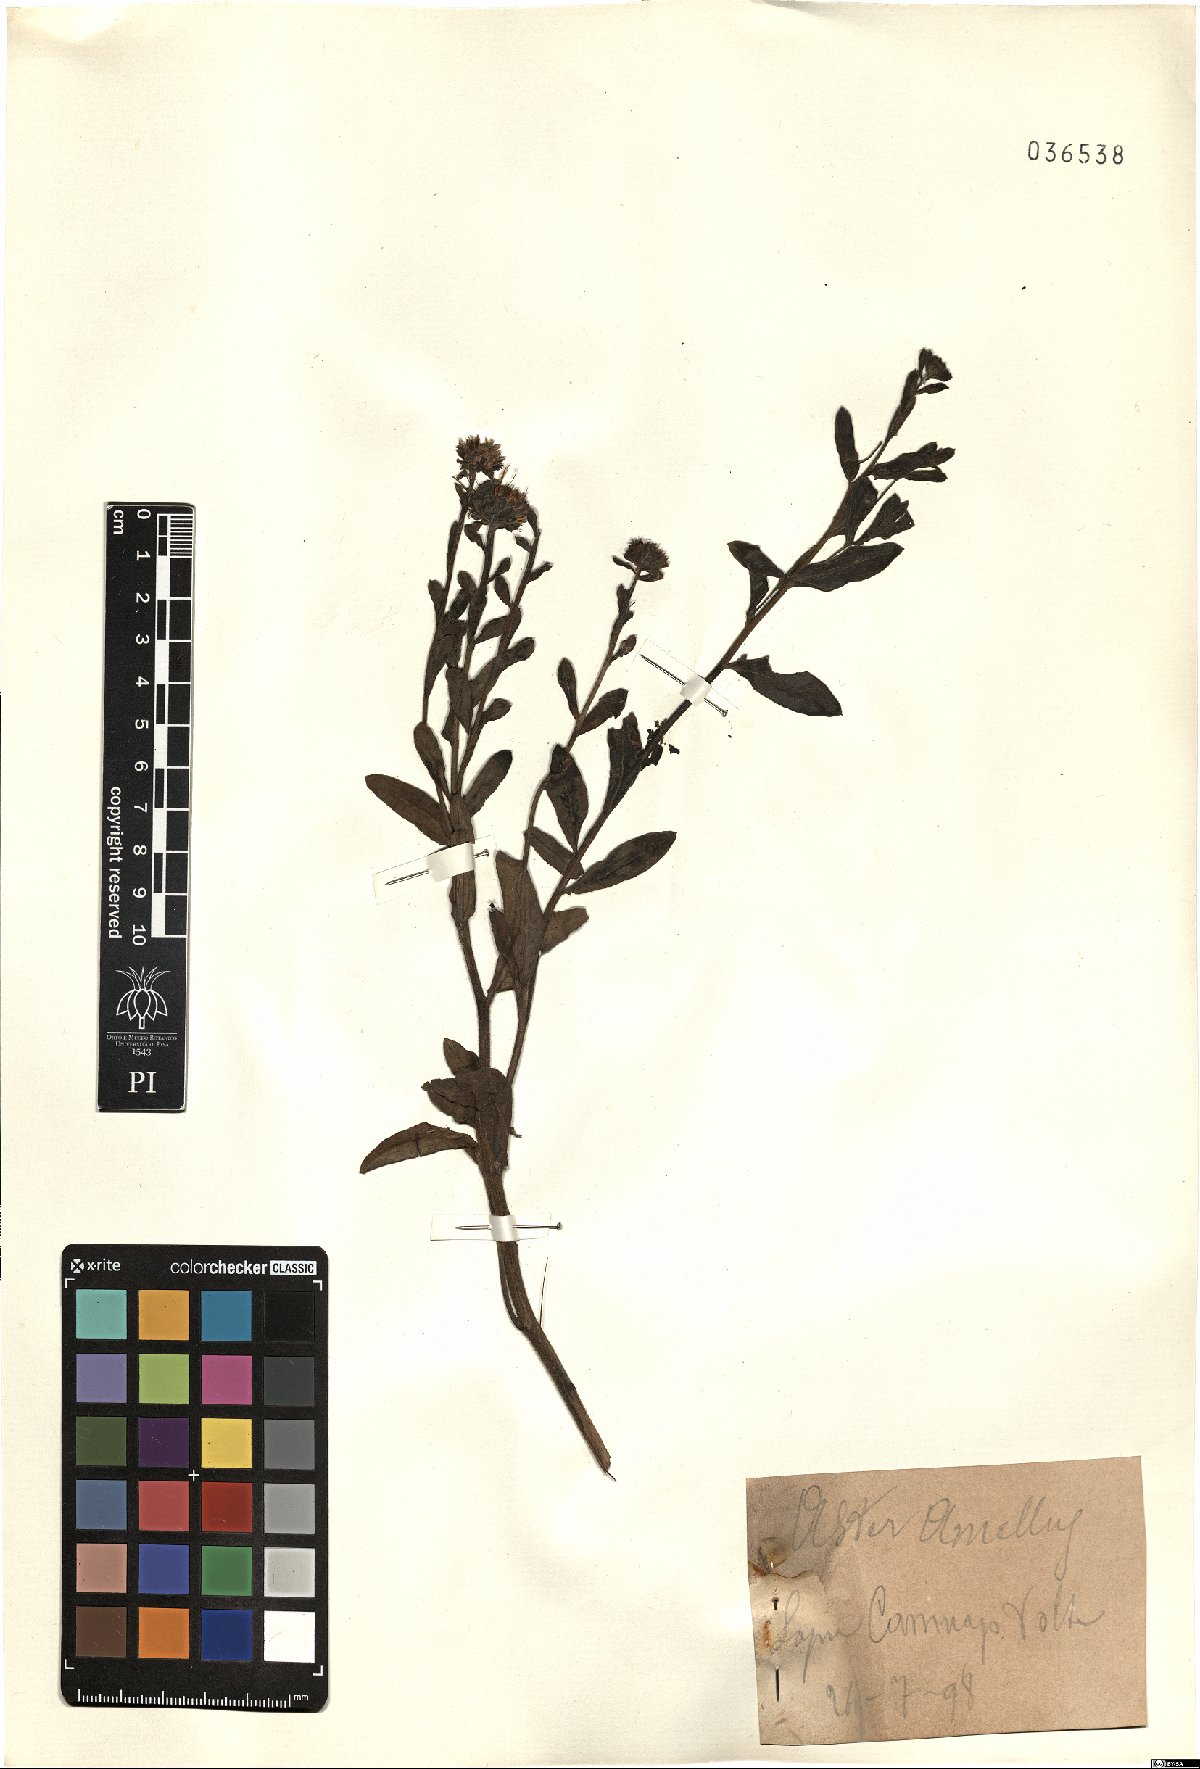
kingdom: Plantae
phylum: Tracheophyta
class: Magnoliopsida
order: Asterales
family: Asteraceae
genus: Aster
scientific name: Aster amellus
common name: European michaelmas daisy
